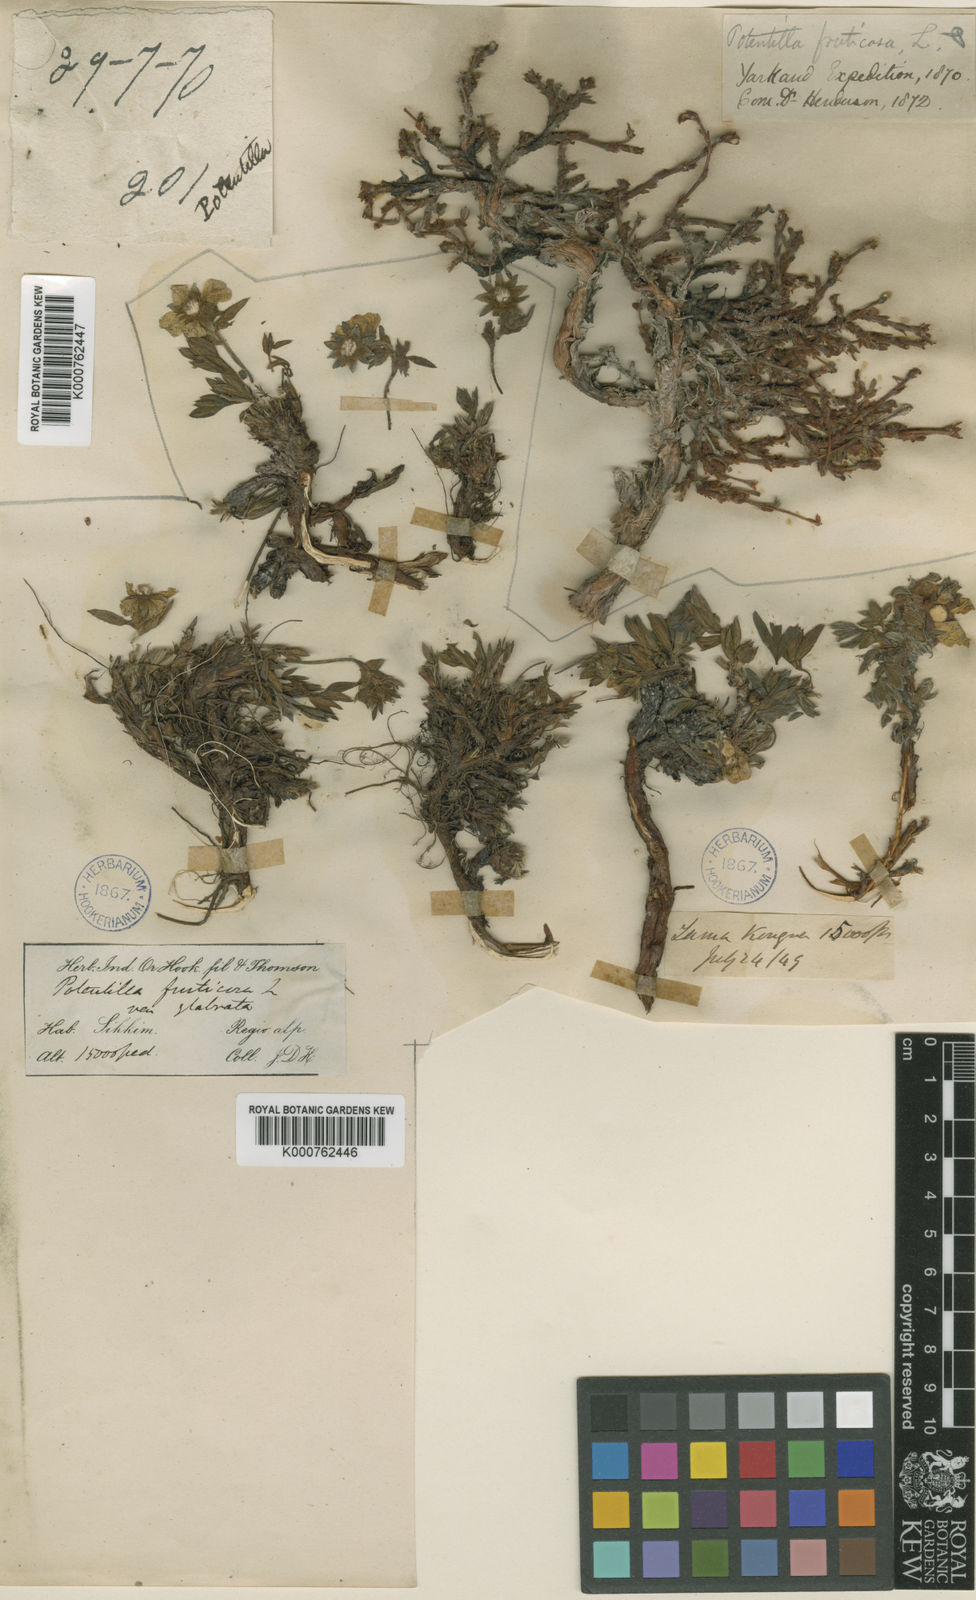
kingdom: Plantae
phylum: Tracheophyta
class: Magnoliopsida
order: Rosales
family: Rosaceae
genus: Dasiphora
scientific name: Dasiphora fruticosa
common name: Shrubby cinquefoil
